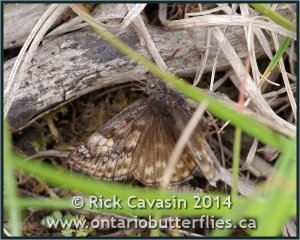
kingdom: Animalia
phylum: Arthropoda
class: Insecta
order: Lepidoptera
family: Hesperiidae
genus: Gesta
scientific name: Gesta
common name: Juvenal's Duskywing
